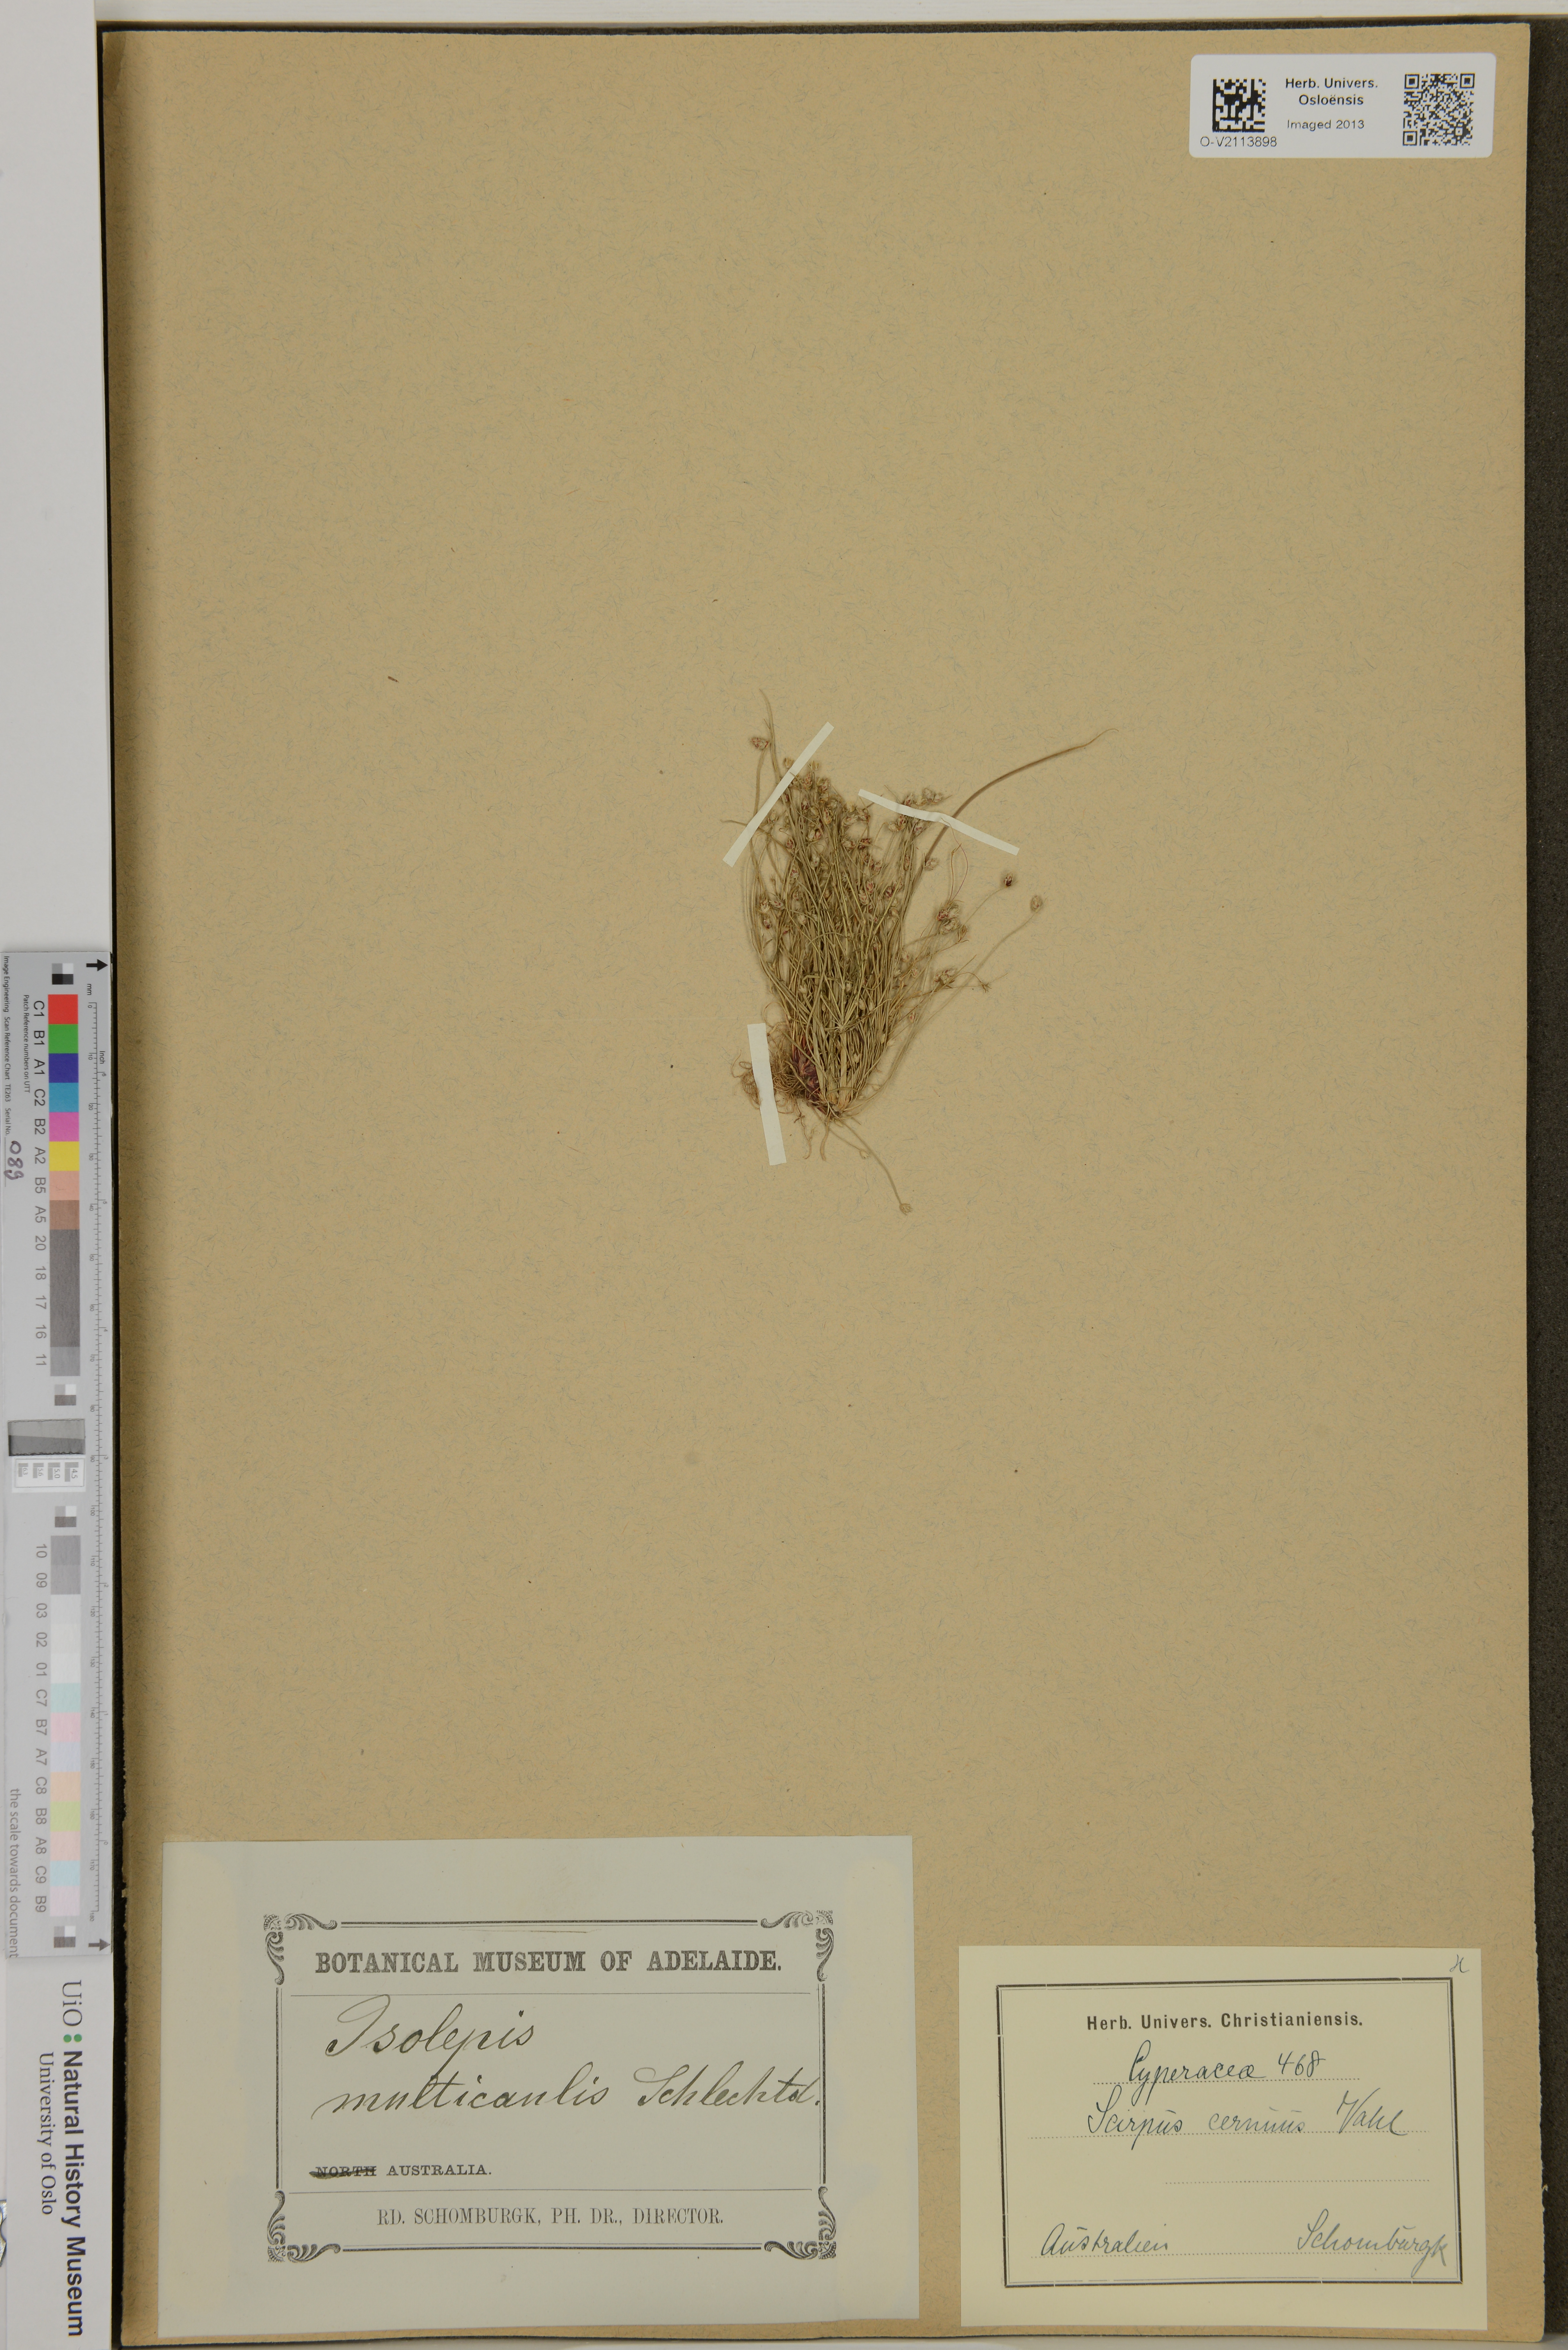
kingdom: Plantae
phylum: Tracheophyta
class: Liliopsida
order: Poales
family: Cyperaceae
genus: Isolepis
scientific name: Isolepis cernua
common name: Slender club-rush
